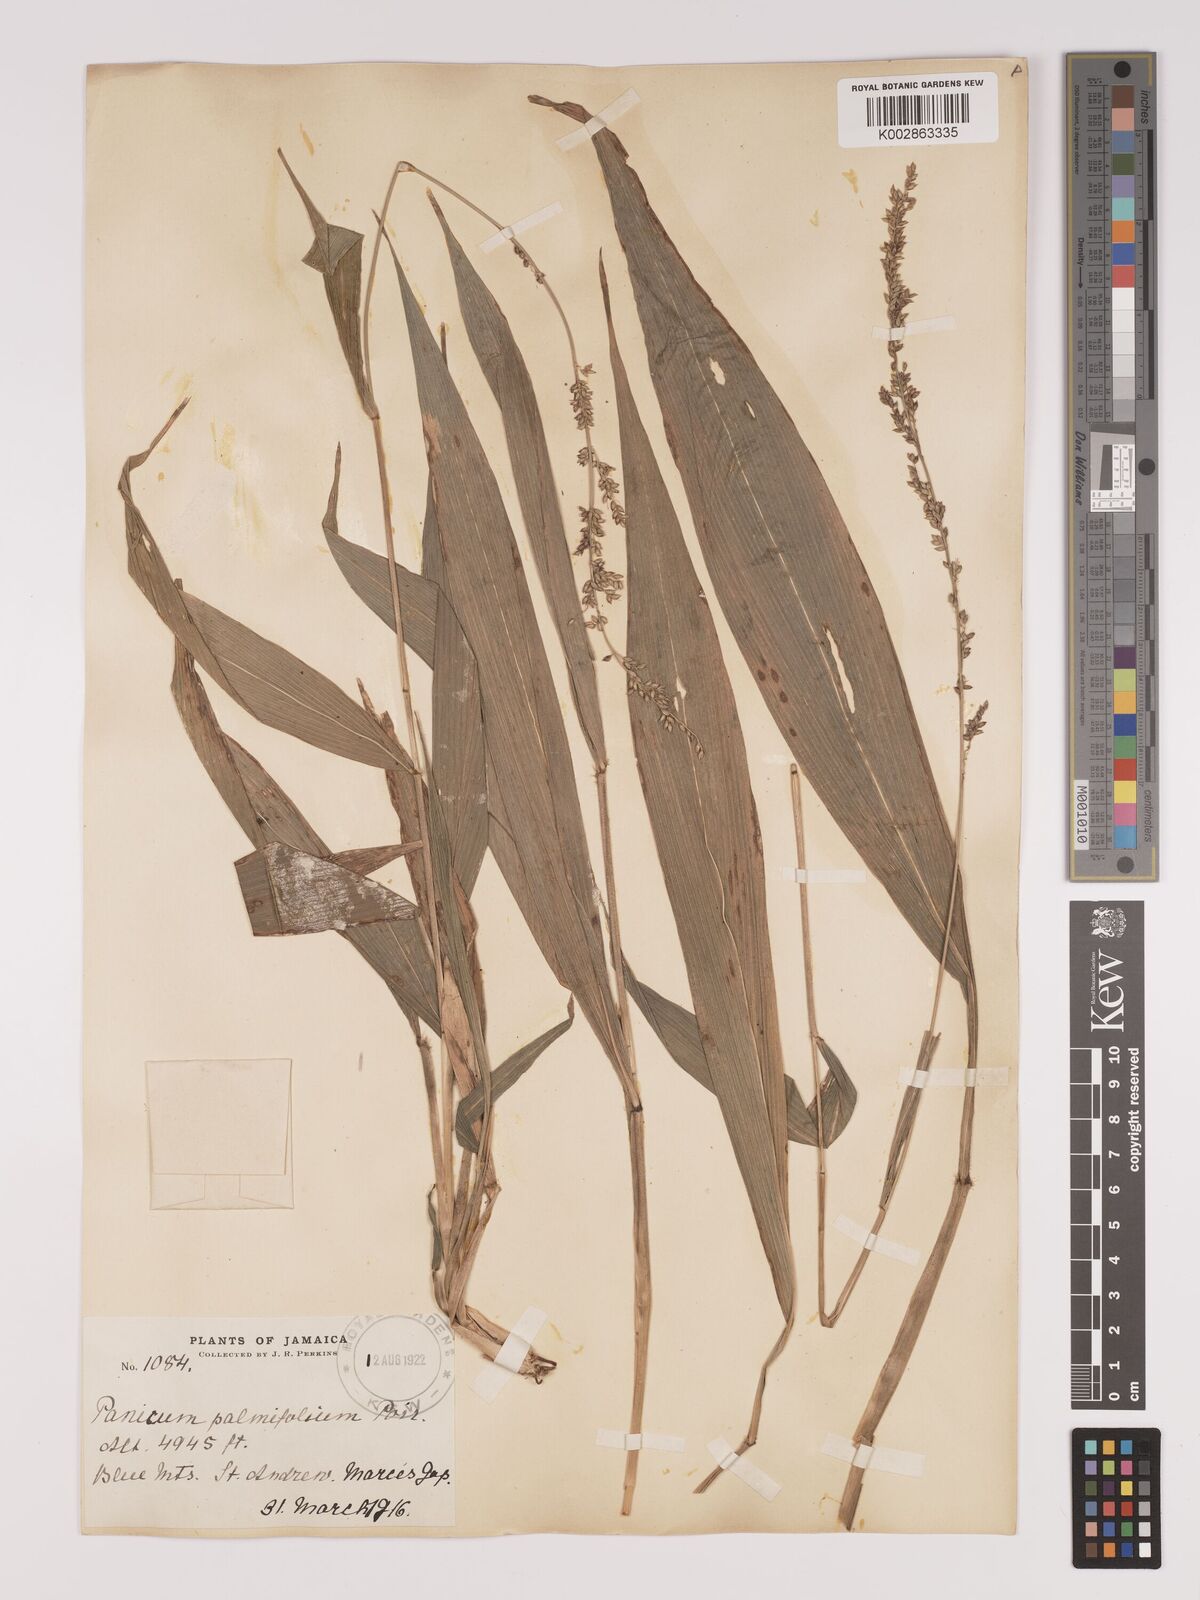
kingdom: Plantae
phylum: Tracheophyta
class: Liliopsida
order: Poales
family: Poaceae
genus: Setaria
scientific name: Setaria palmifolia
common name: Broadleaved bristlegrass
